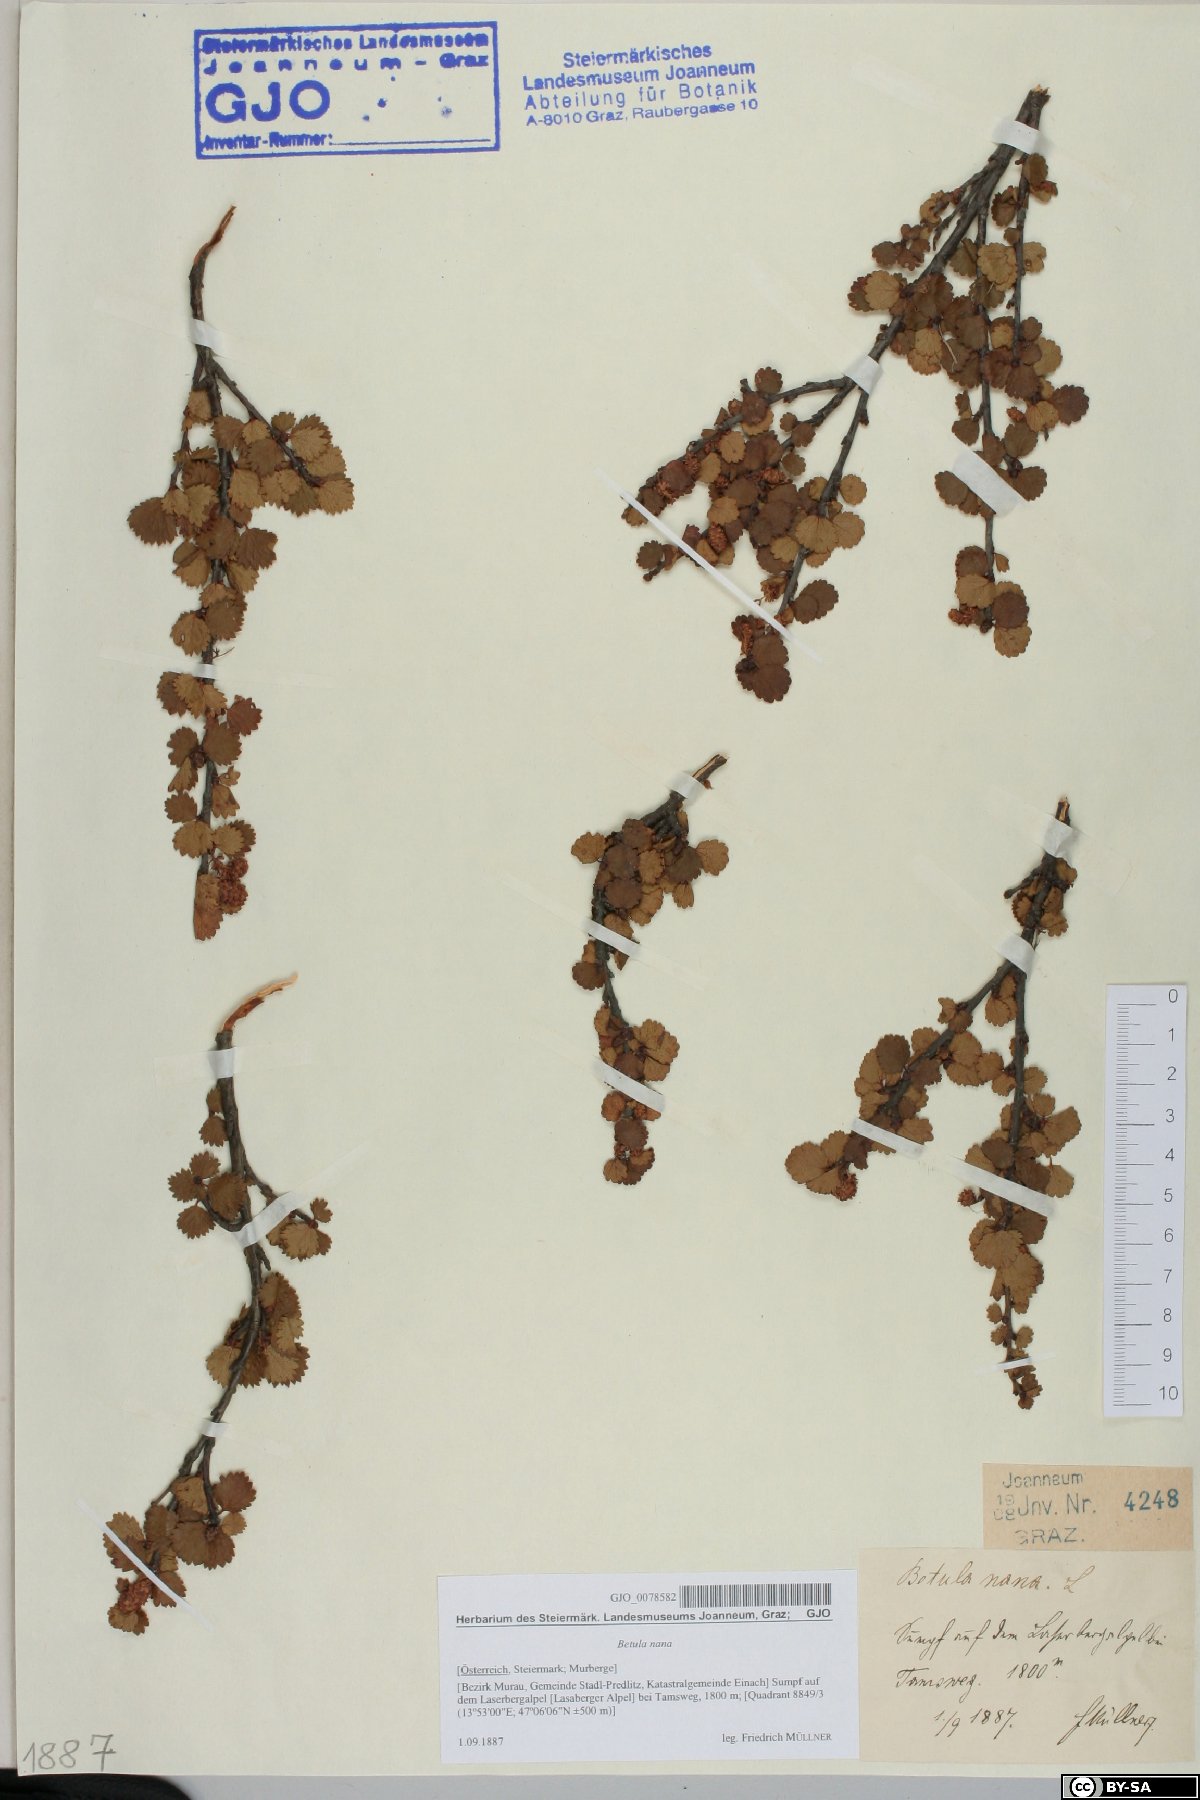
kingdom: Plantae
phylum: Tracheophyta
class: Magnoliopsida
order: Fagales
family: Betulaceae
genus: Betula
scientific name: Betula nana
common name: Arctic dwarf birch
